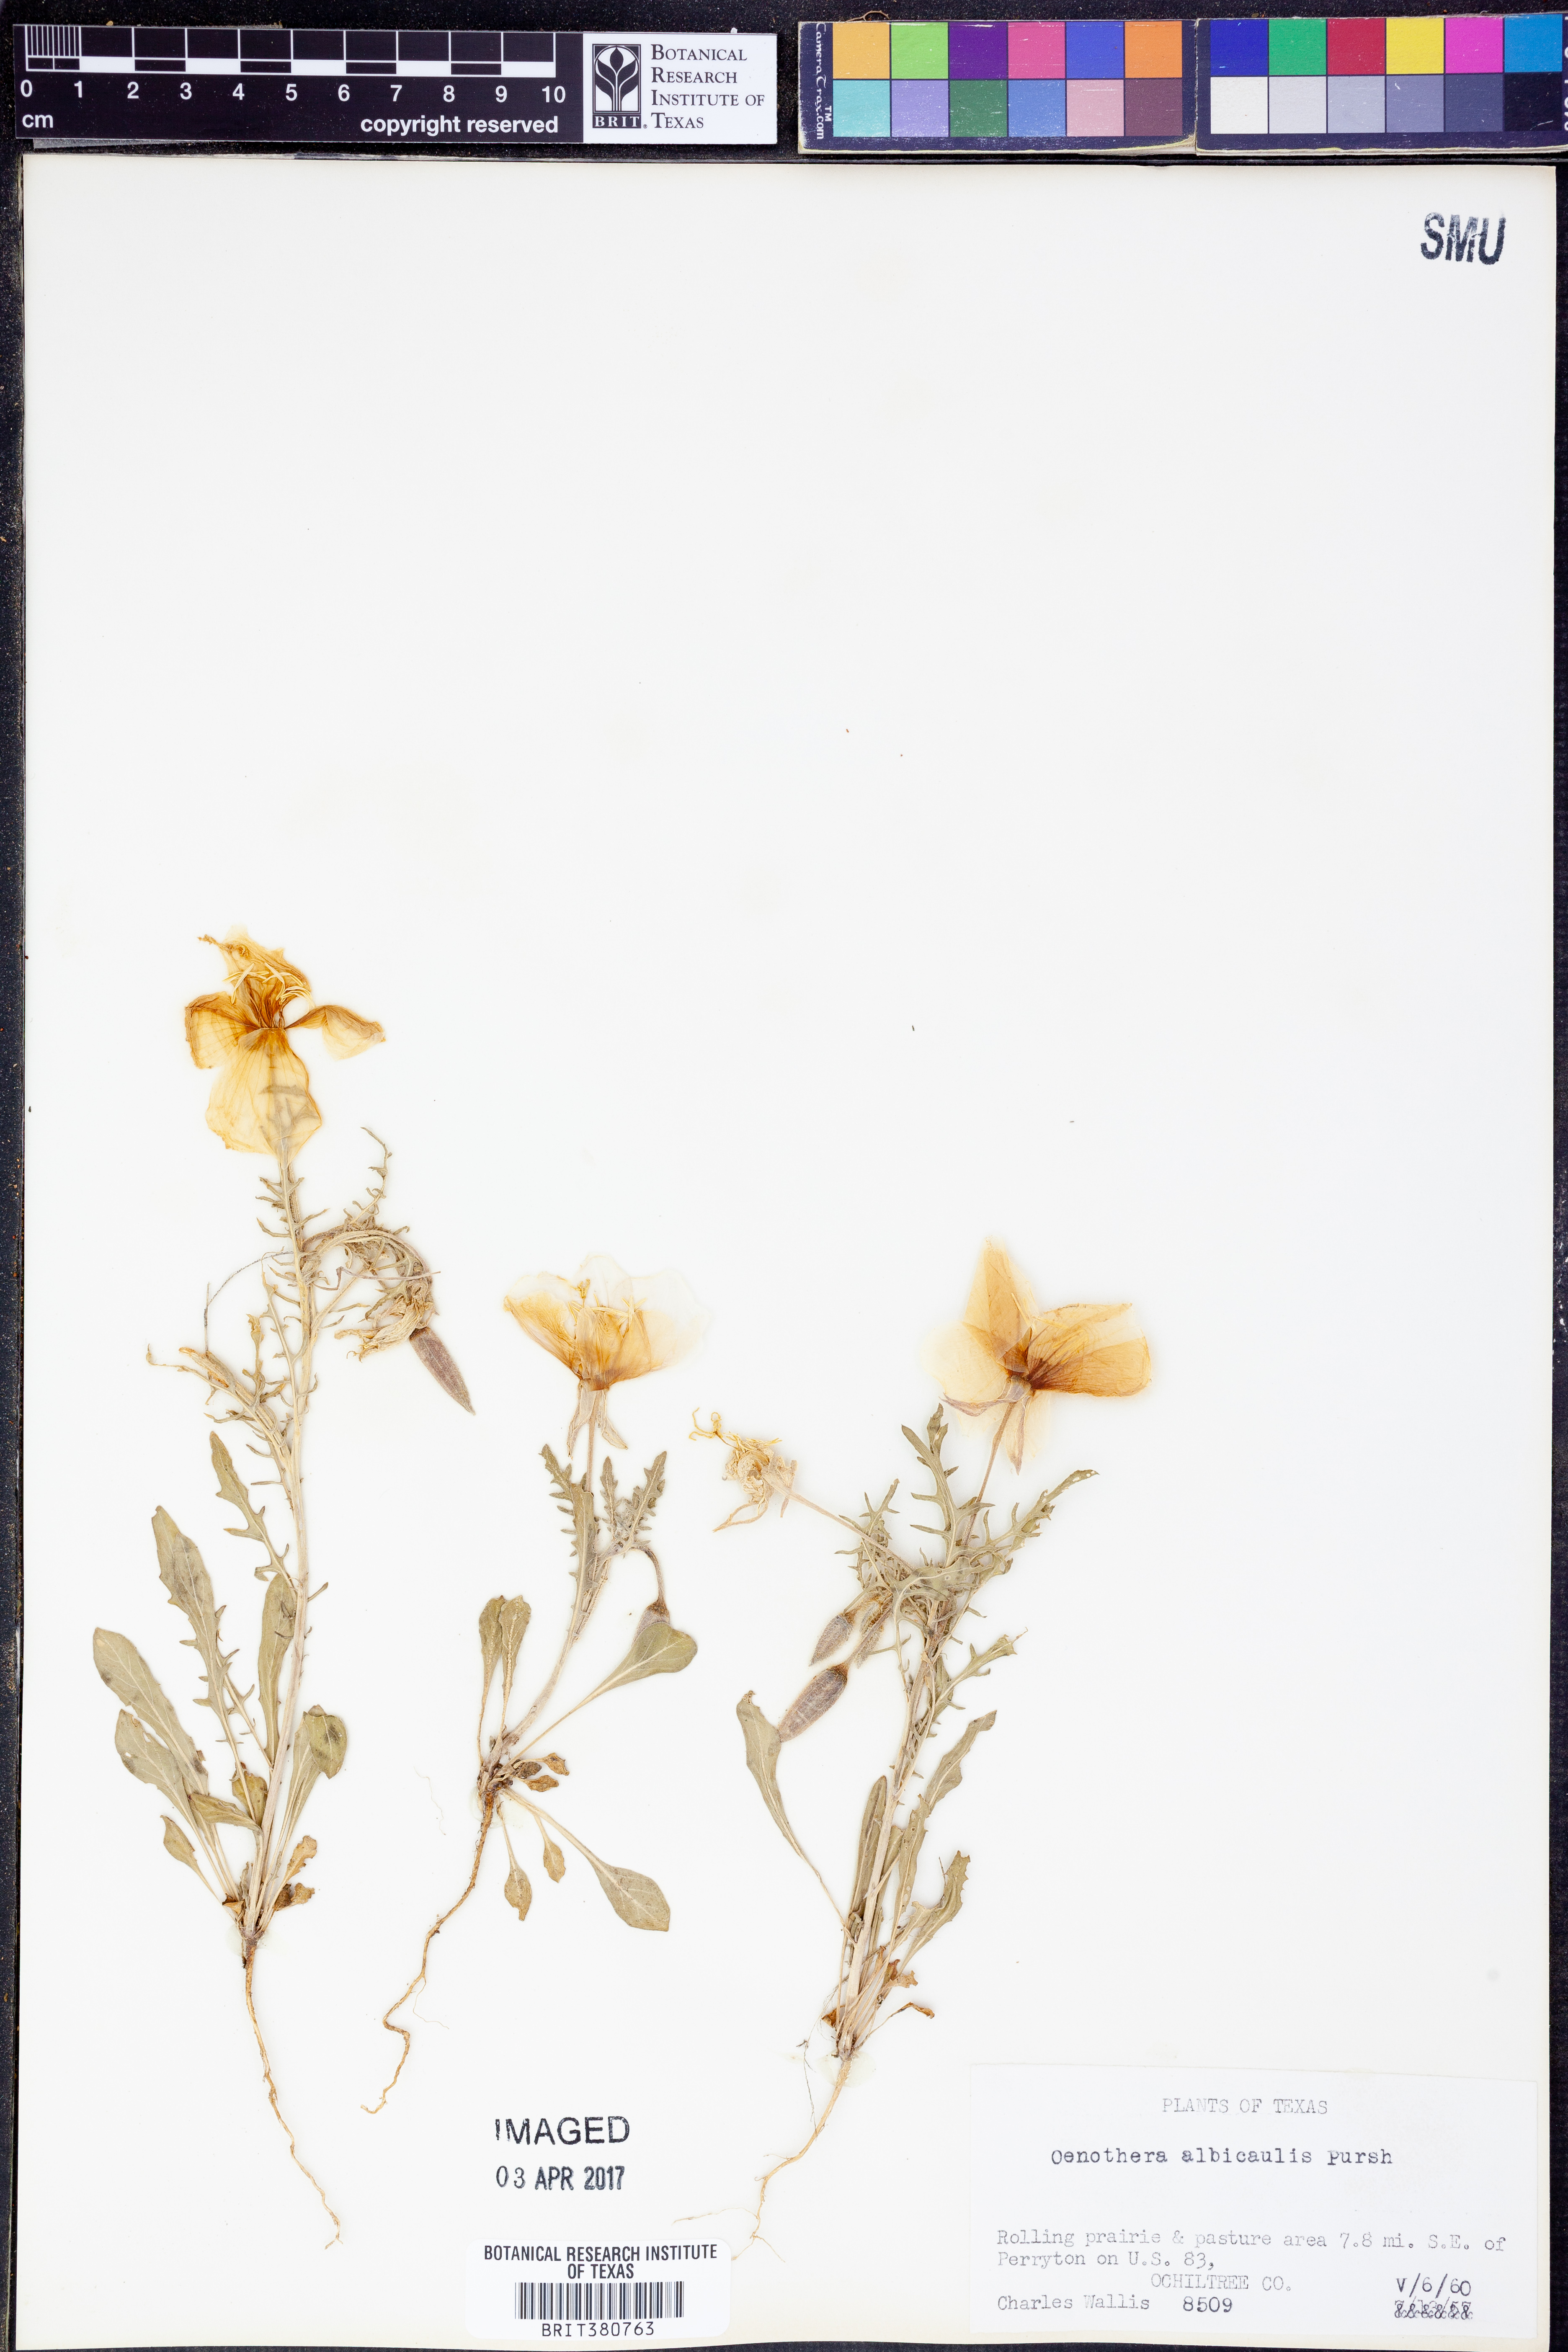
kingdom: Plantae
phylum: Tracheophyta
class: Magnoliopsida
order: Myrtales
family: Onagraceae
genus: Oenothera
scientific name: Oenothera albicaulis
